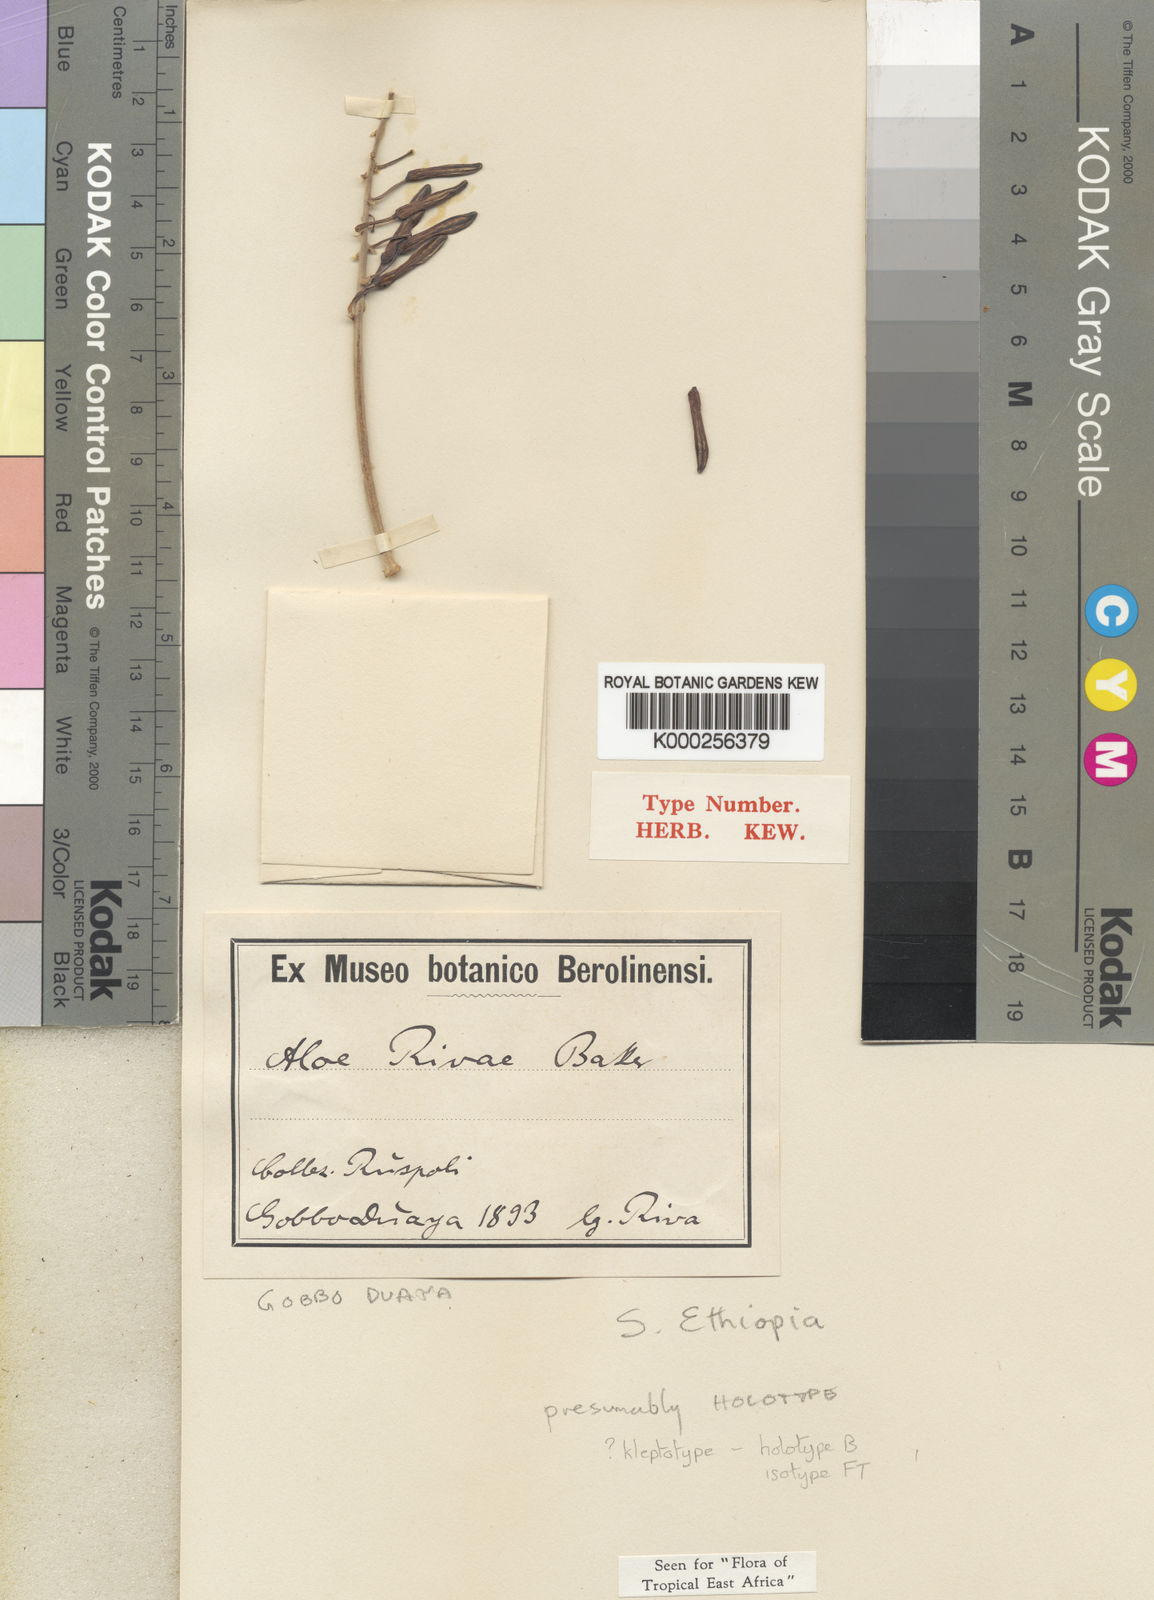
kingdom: Plantae
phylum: Tracheophyta
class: Liliopsida
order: Asparagales
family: Asphodelaceae
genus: Aloe
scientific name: Aloe rivae
